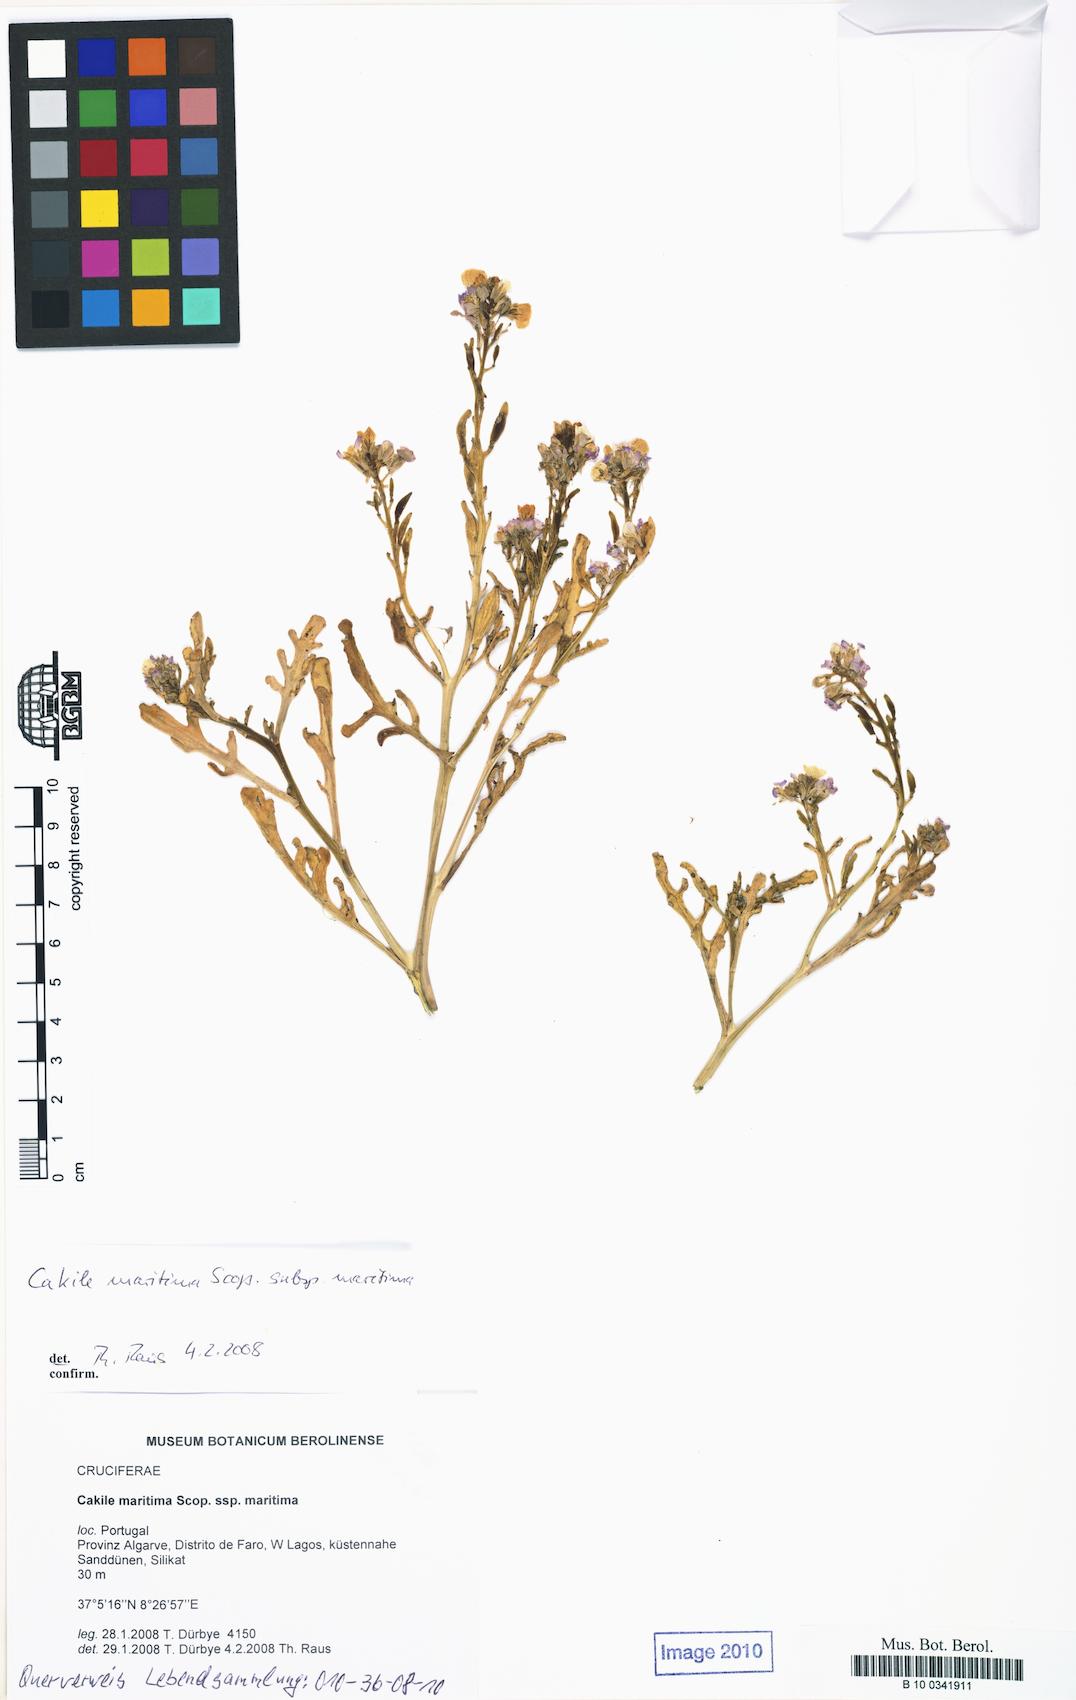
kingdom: Plantae
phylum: Tracheophyta
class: Magnoliopsida
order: Brassicales
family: Brassicaceae
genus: Cakile
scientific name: Cakile maritima
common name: Sea rocket
